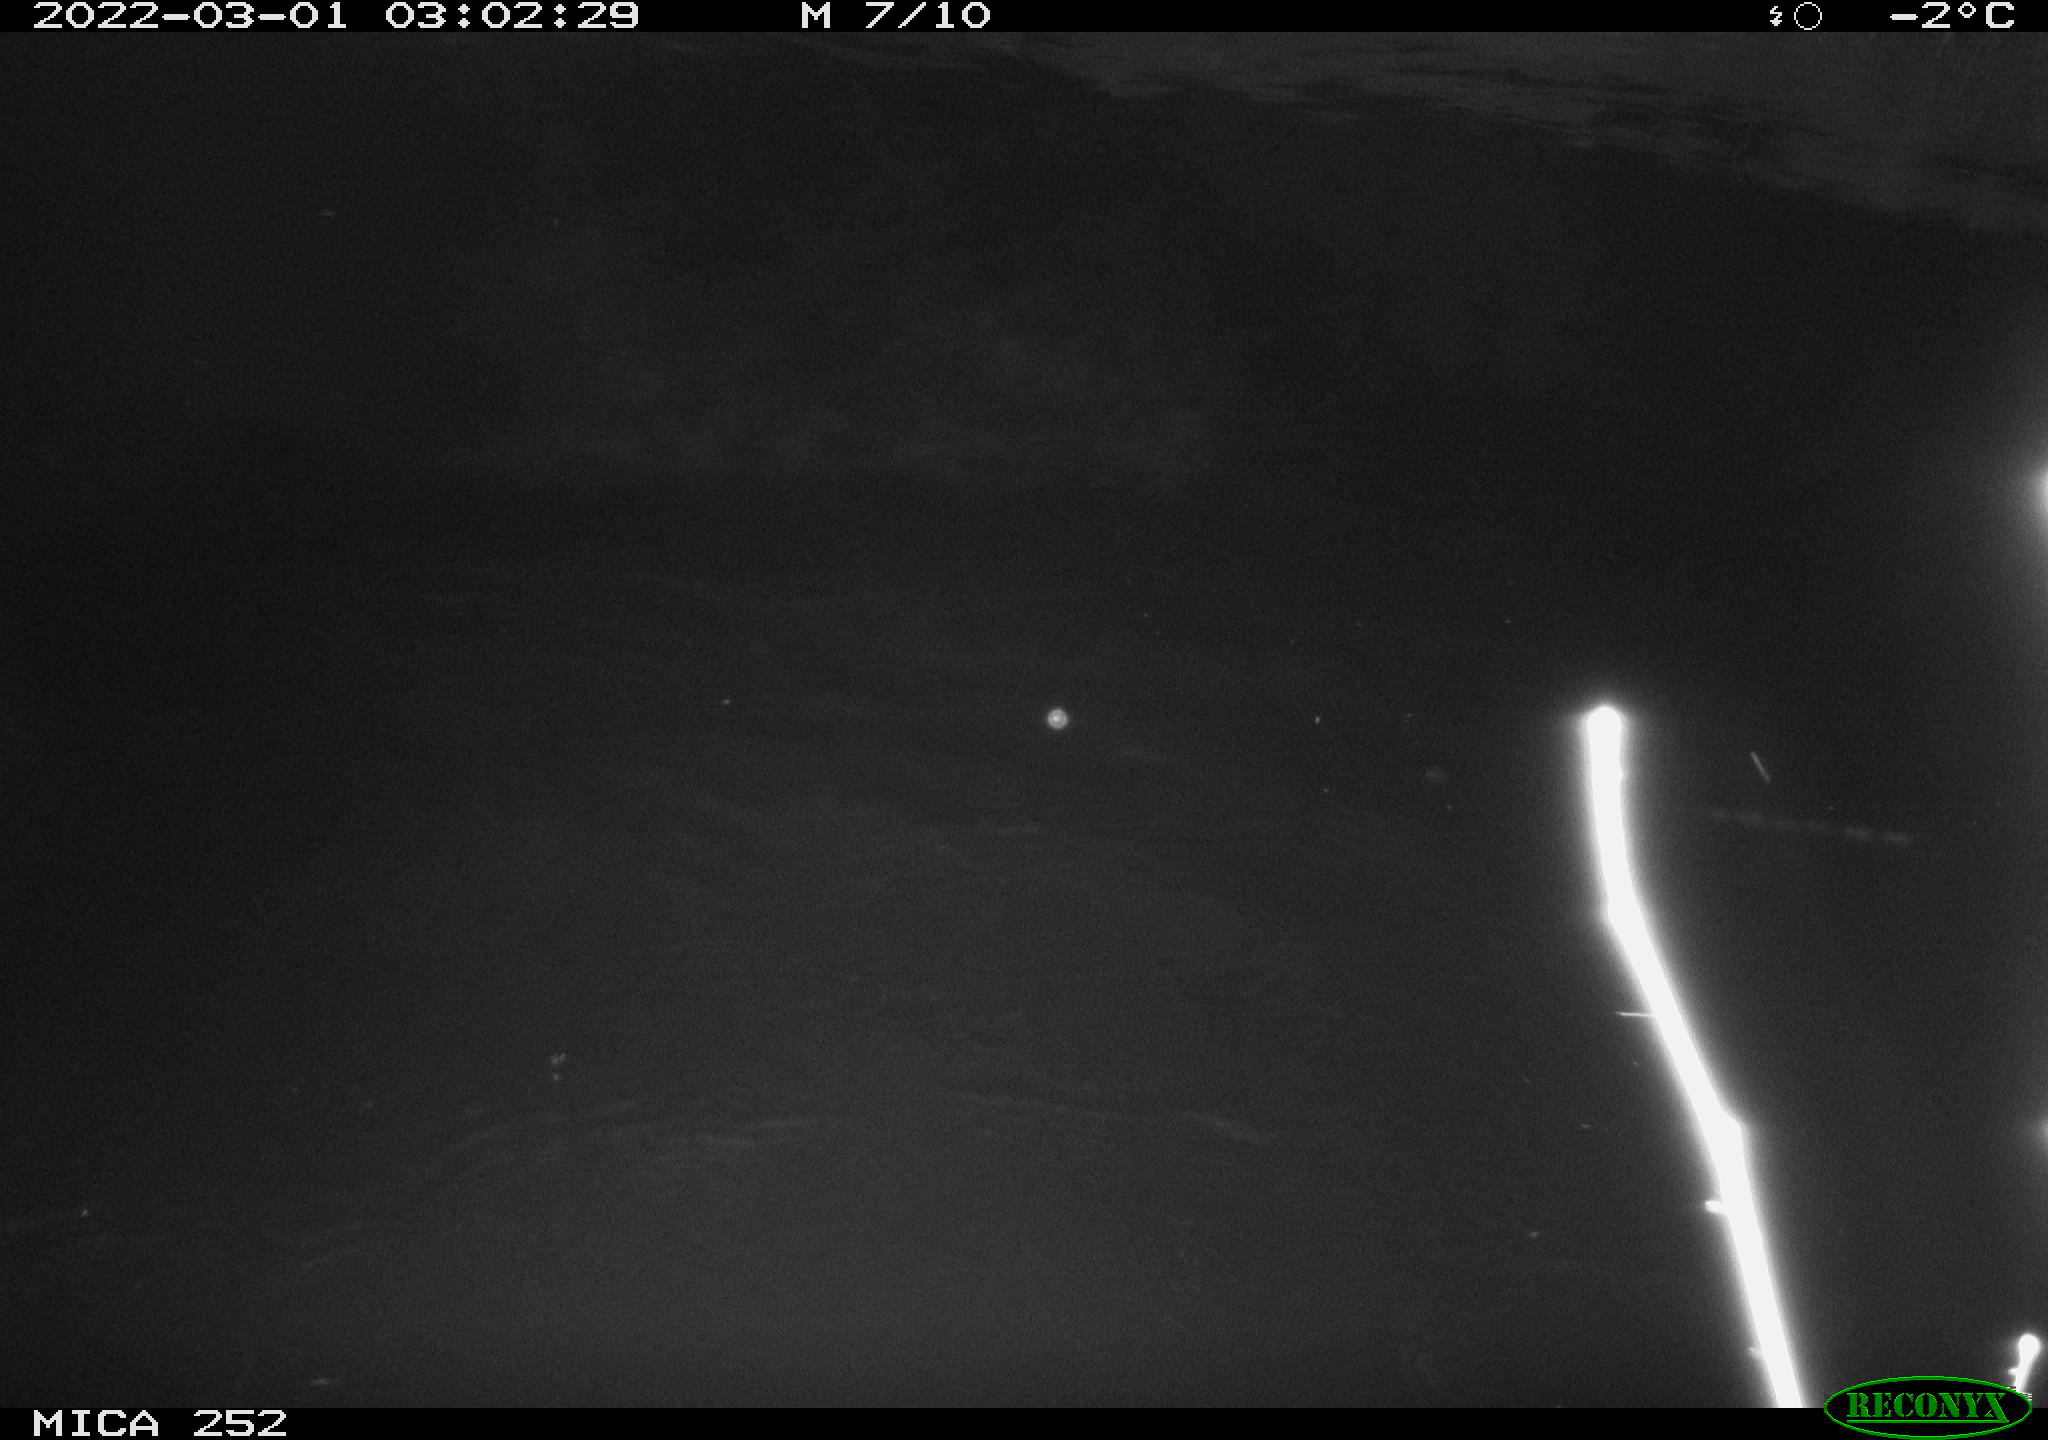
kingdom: Animalia
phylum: Chordata
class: Mammalia
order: Rodentia
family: Castoridae
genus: Castor
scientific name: Castor fiber
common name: Eurasian beaver
